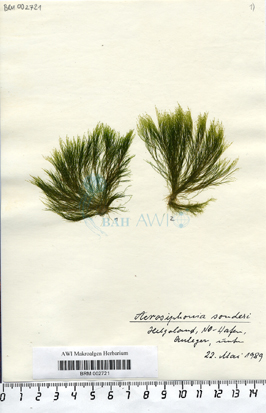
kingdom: Plantae
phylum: Chlorophyta
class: Ulvophyceae
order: Ulotrichales
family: Ulotrichaceae
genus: Acrosiphonia
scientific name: Acrosiphonia sonderi
